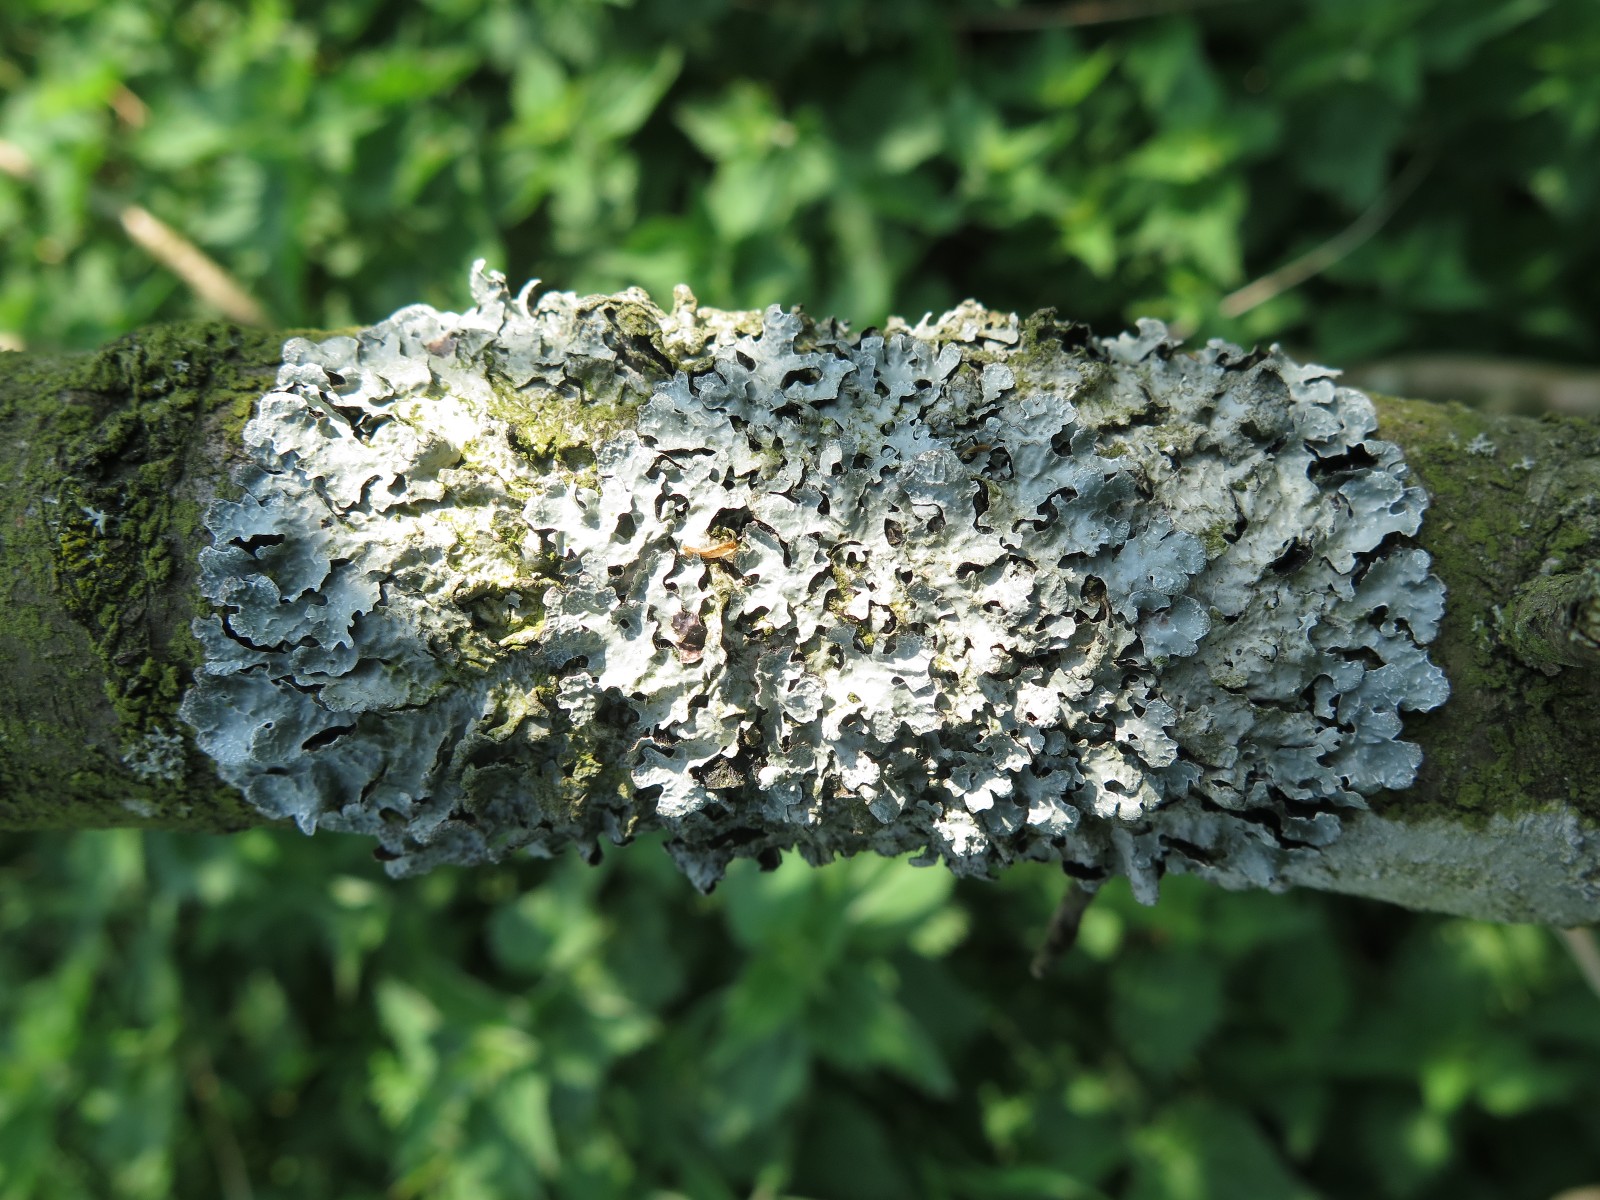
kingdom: Fungi
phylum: Ascomycota
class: Lecanoromycetes
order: Lecanorales
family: Parmeliaceae
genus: Parmelia
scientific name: Parmelia sulcata
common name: rynket skållav
